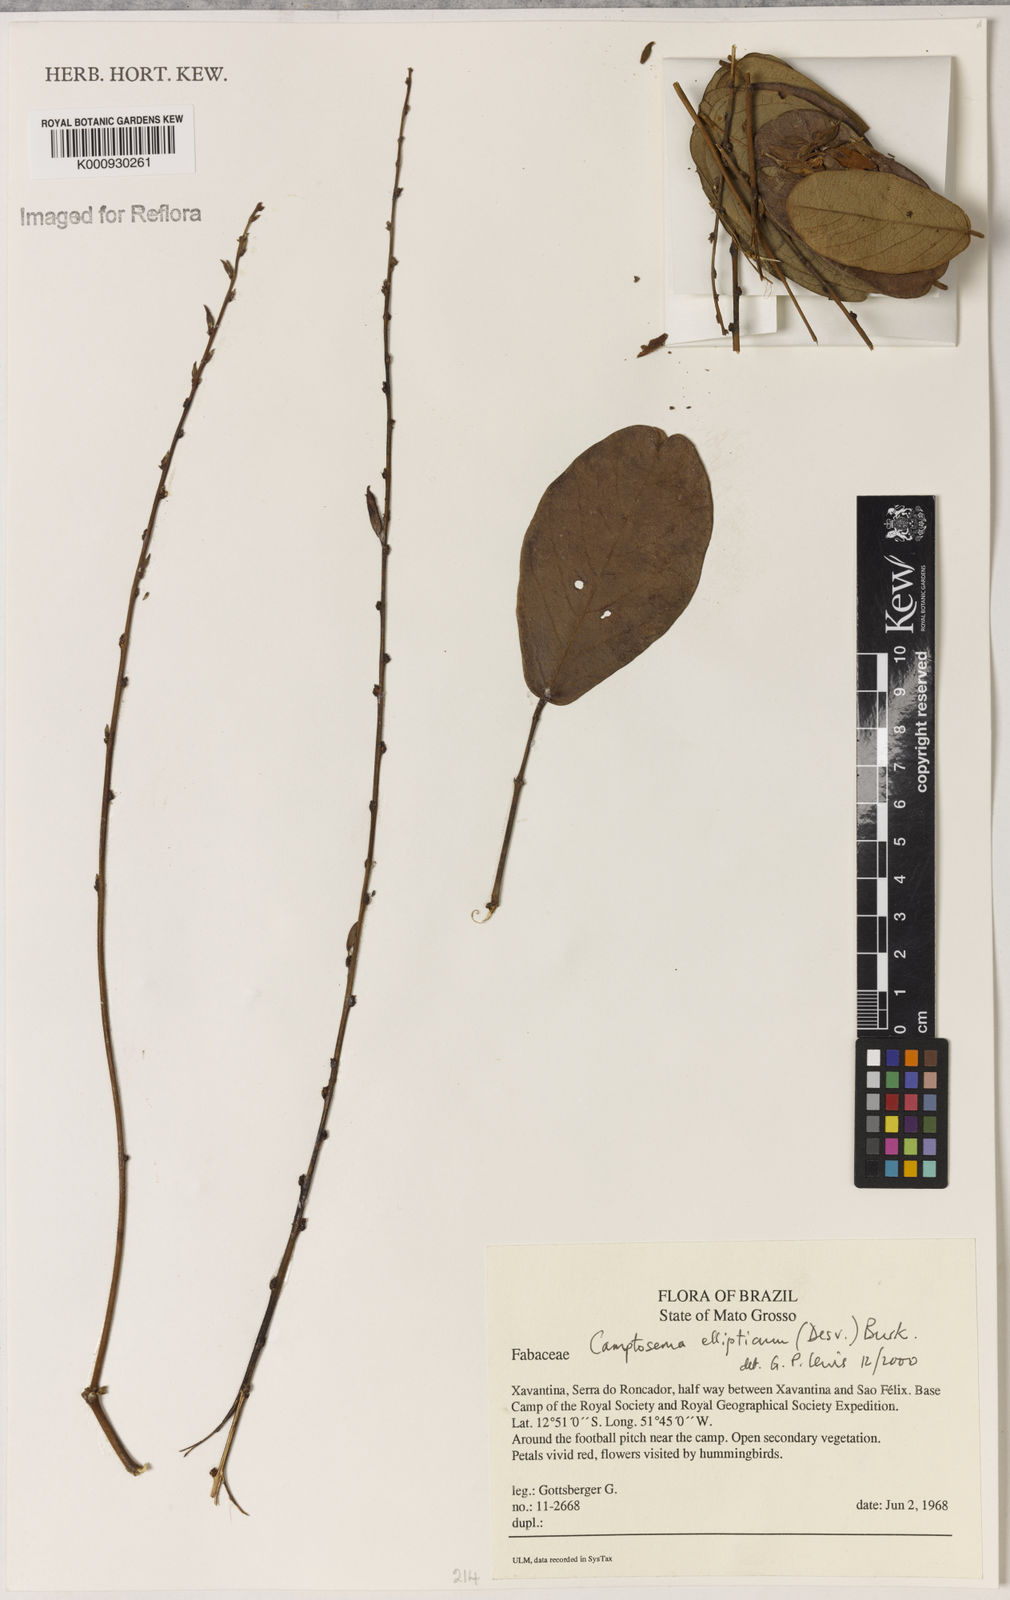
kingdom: Plantae
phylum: Tracheophyta
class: Magnoliopsida
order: Fabales
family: Fabaceae
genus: Camptosema
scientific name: Camptosema
